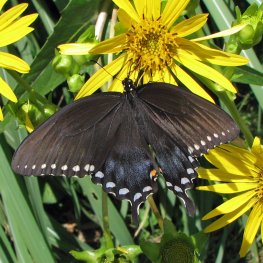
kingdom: Animalia
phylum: Arthropoda
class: Insecta
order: Lepidoptera
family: Papilionidae
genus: Pterourus
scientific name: Pterourus troilus
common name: Spicebush Swallowtail
